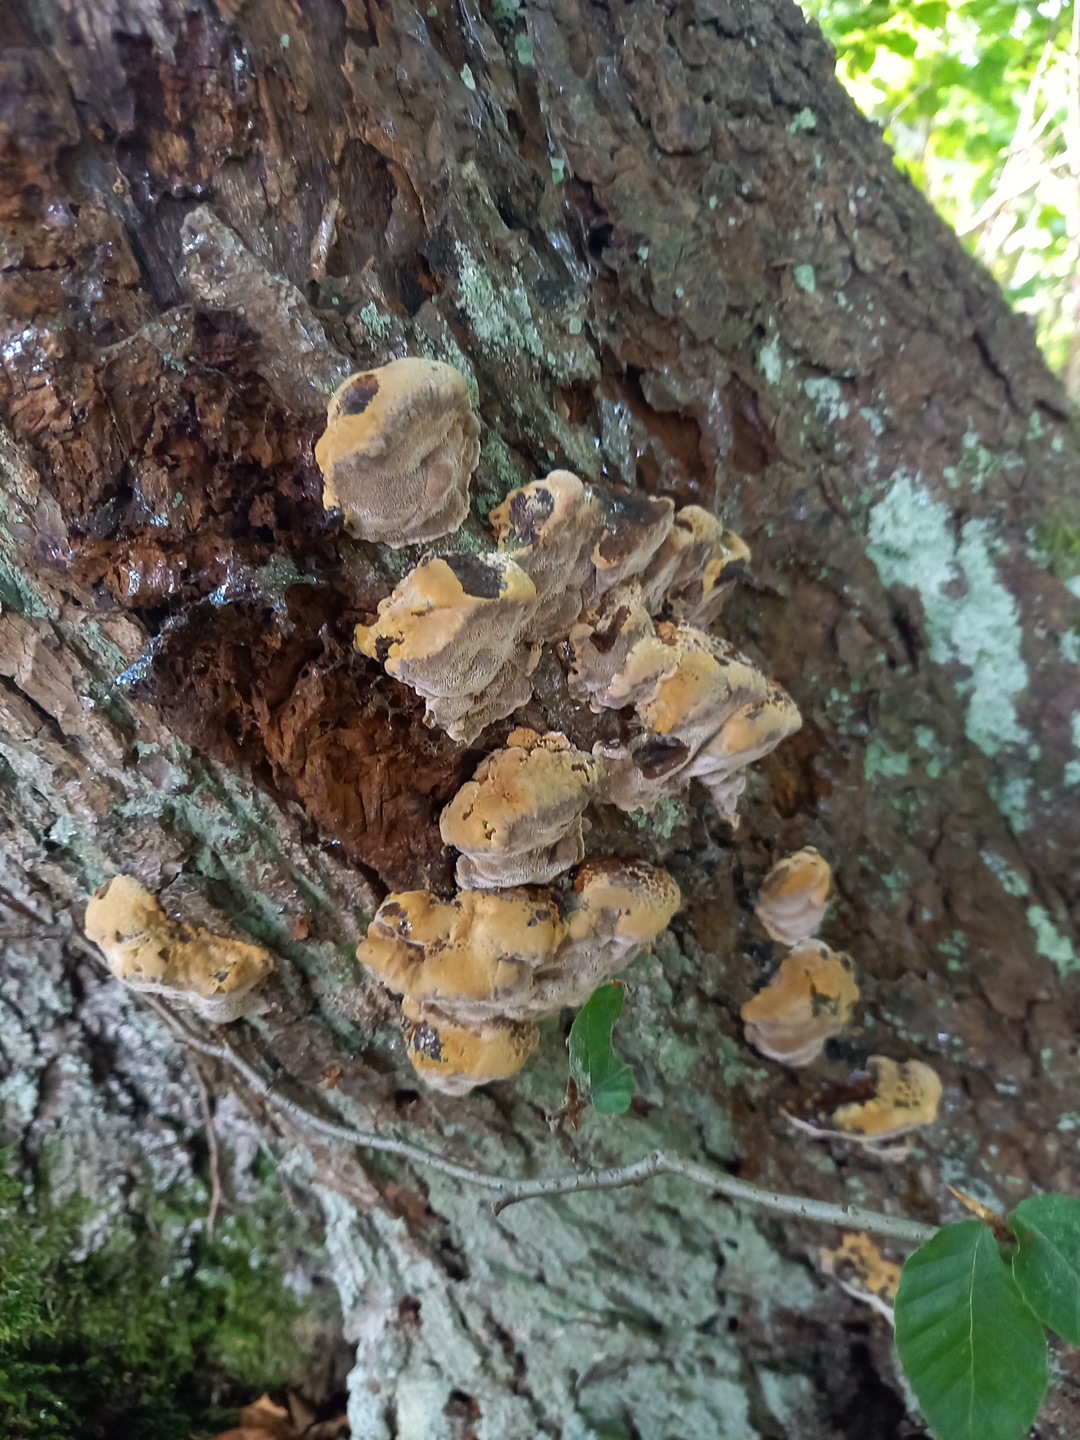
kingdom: Fungi
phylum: Basidiomycota
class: Agaricomycetes
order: Hymenochaetales
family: Hymenochaetaceae
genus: Xanthoporia
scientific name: Xanthoporia radiata
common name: elle-spejlporesvamp
